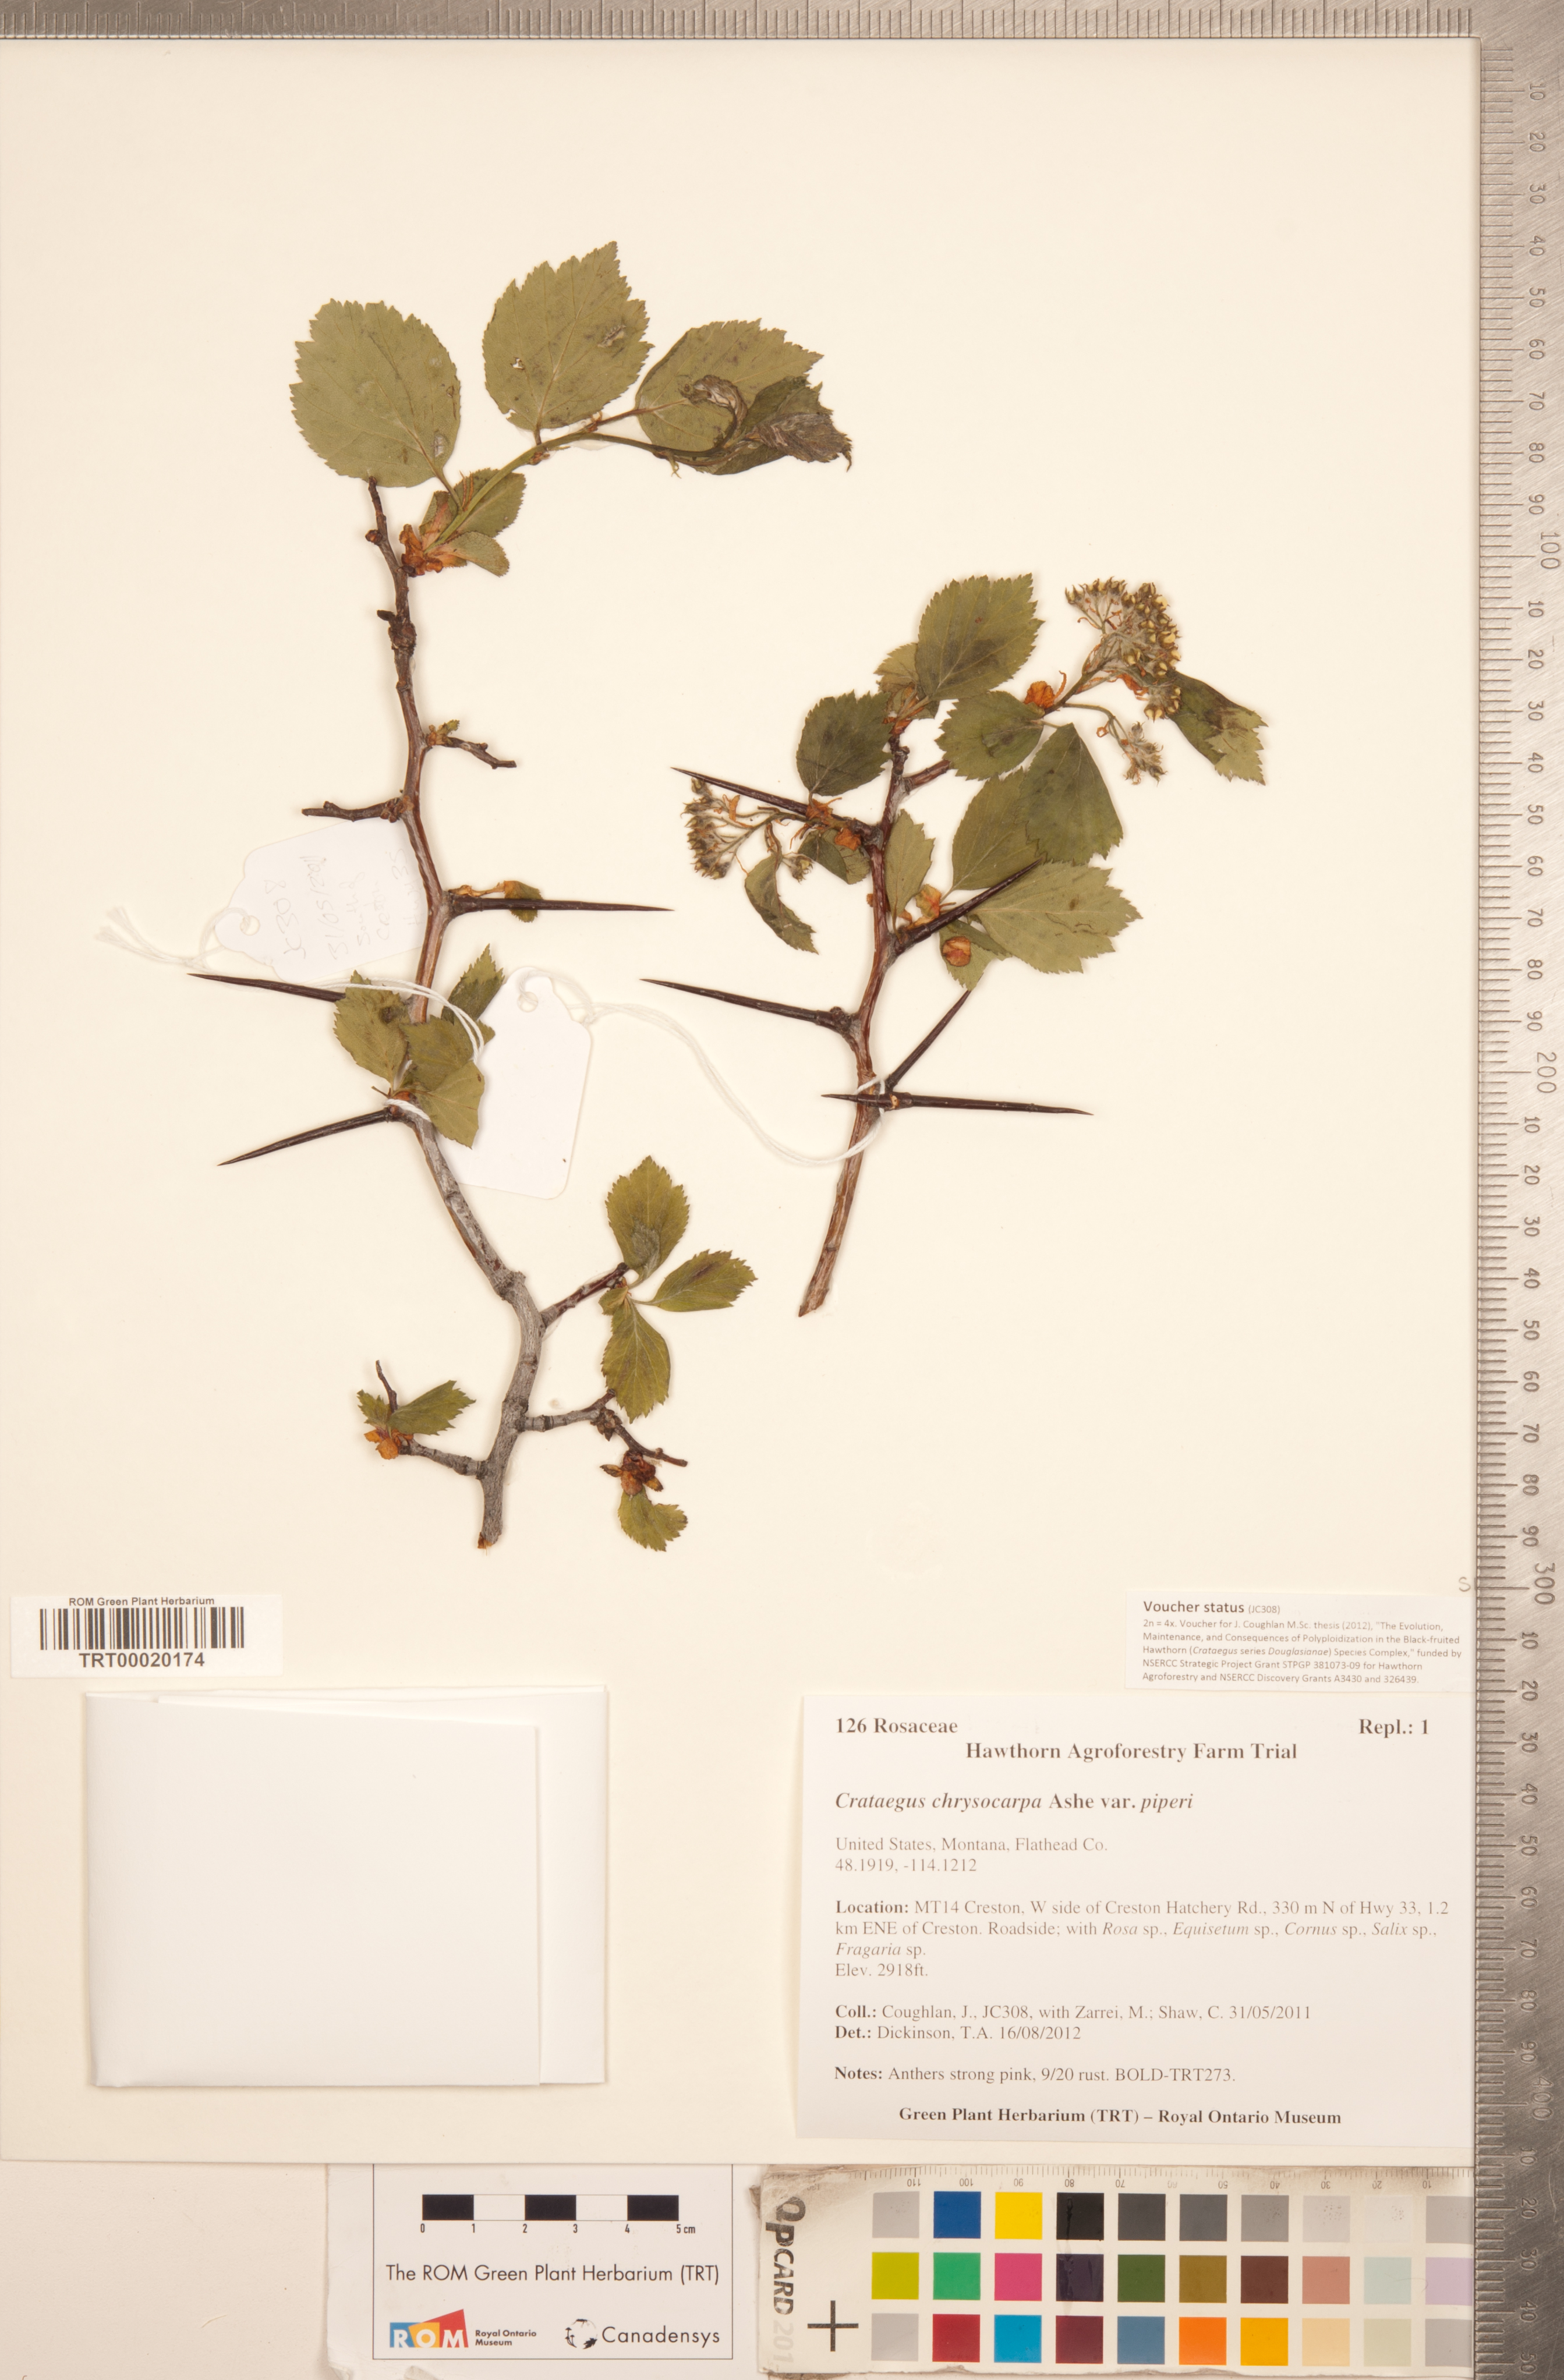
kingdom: Plantae
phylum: Tracheophyta
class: Magnoliopsida
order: Rosales
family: Rosaceae
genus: Crataegus
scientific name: Crataegus piperi
